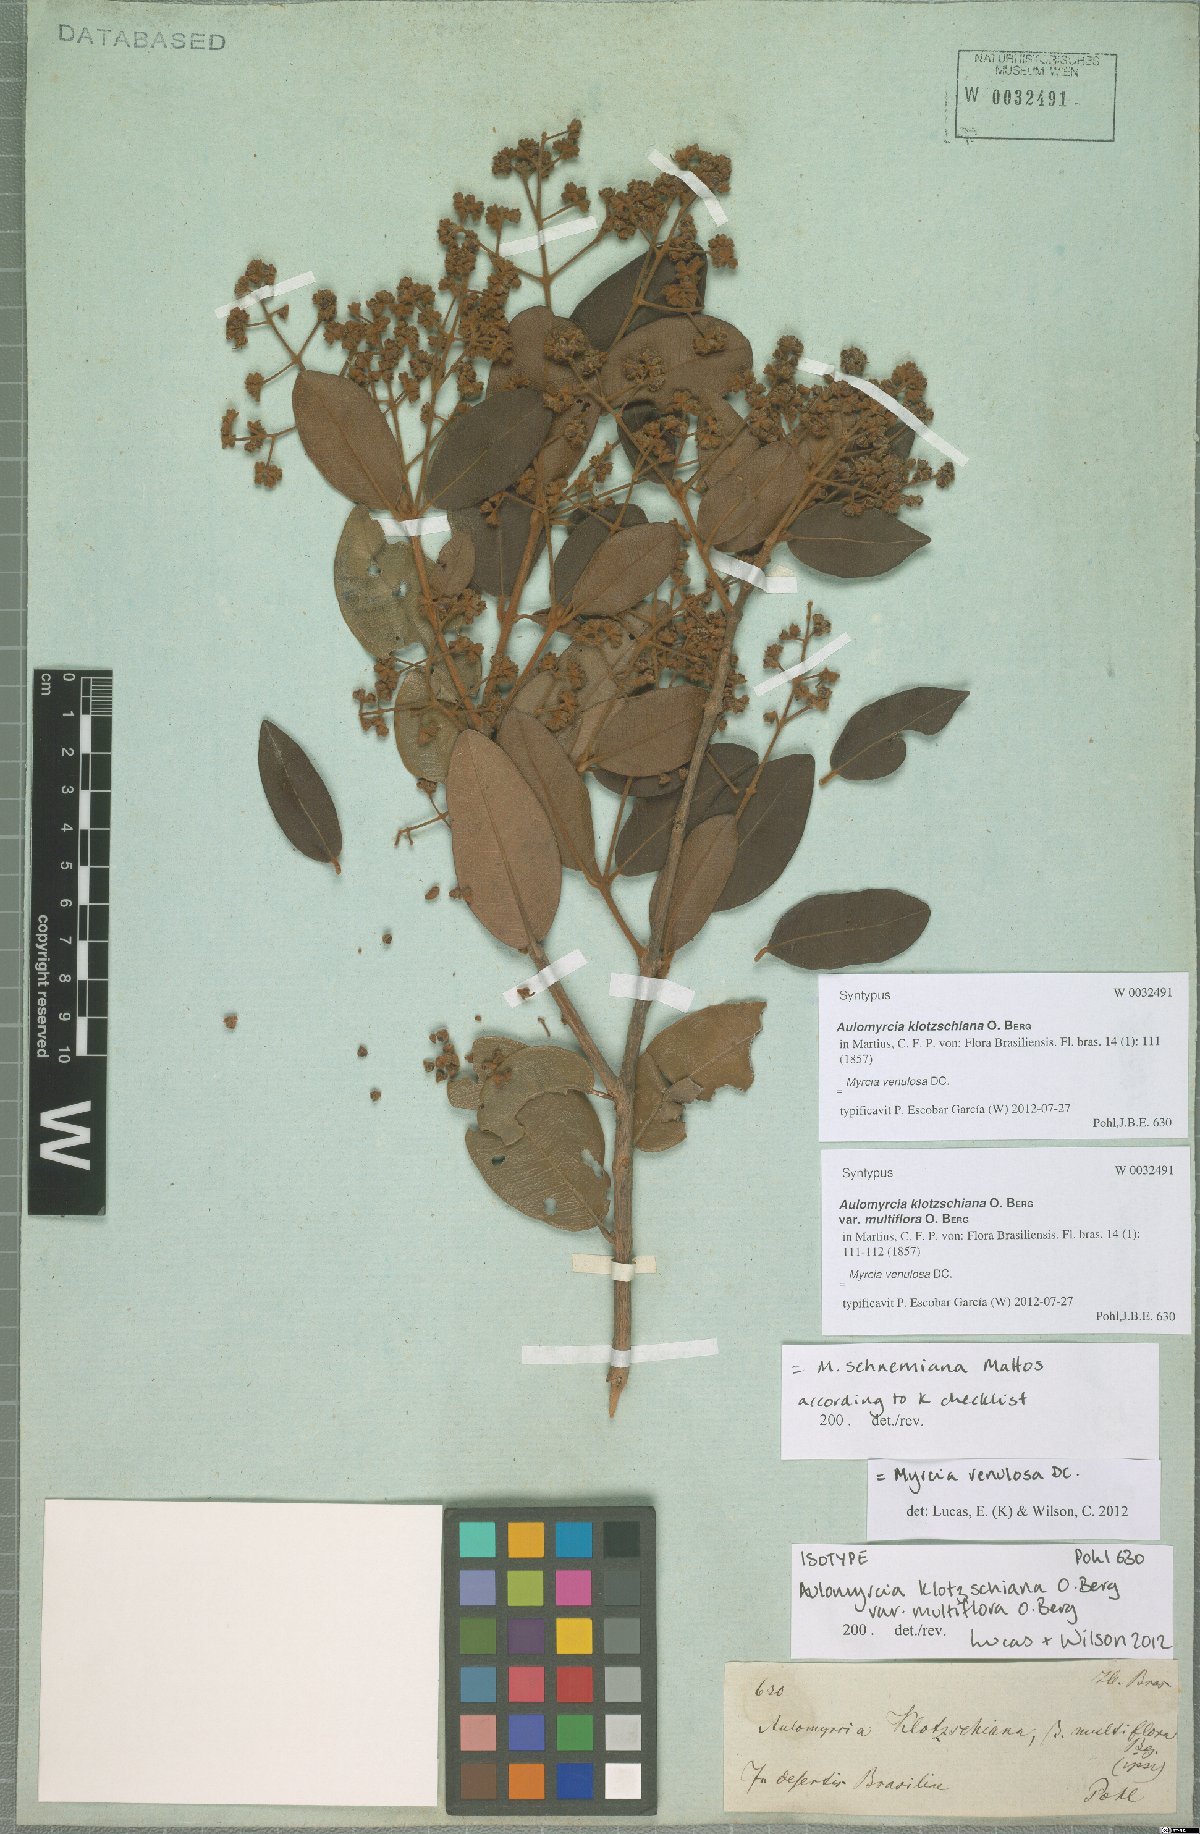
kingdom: Plantae
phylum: Tracheophyta
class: Magnoliopsida
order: Myrtales
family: Myrtaceae
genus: Myrcia
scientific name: Myrcia venulosa
